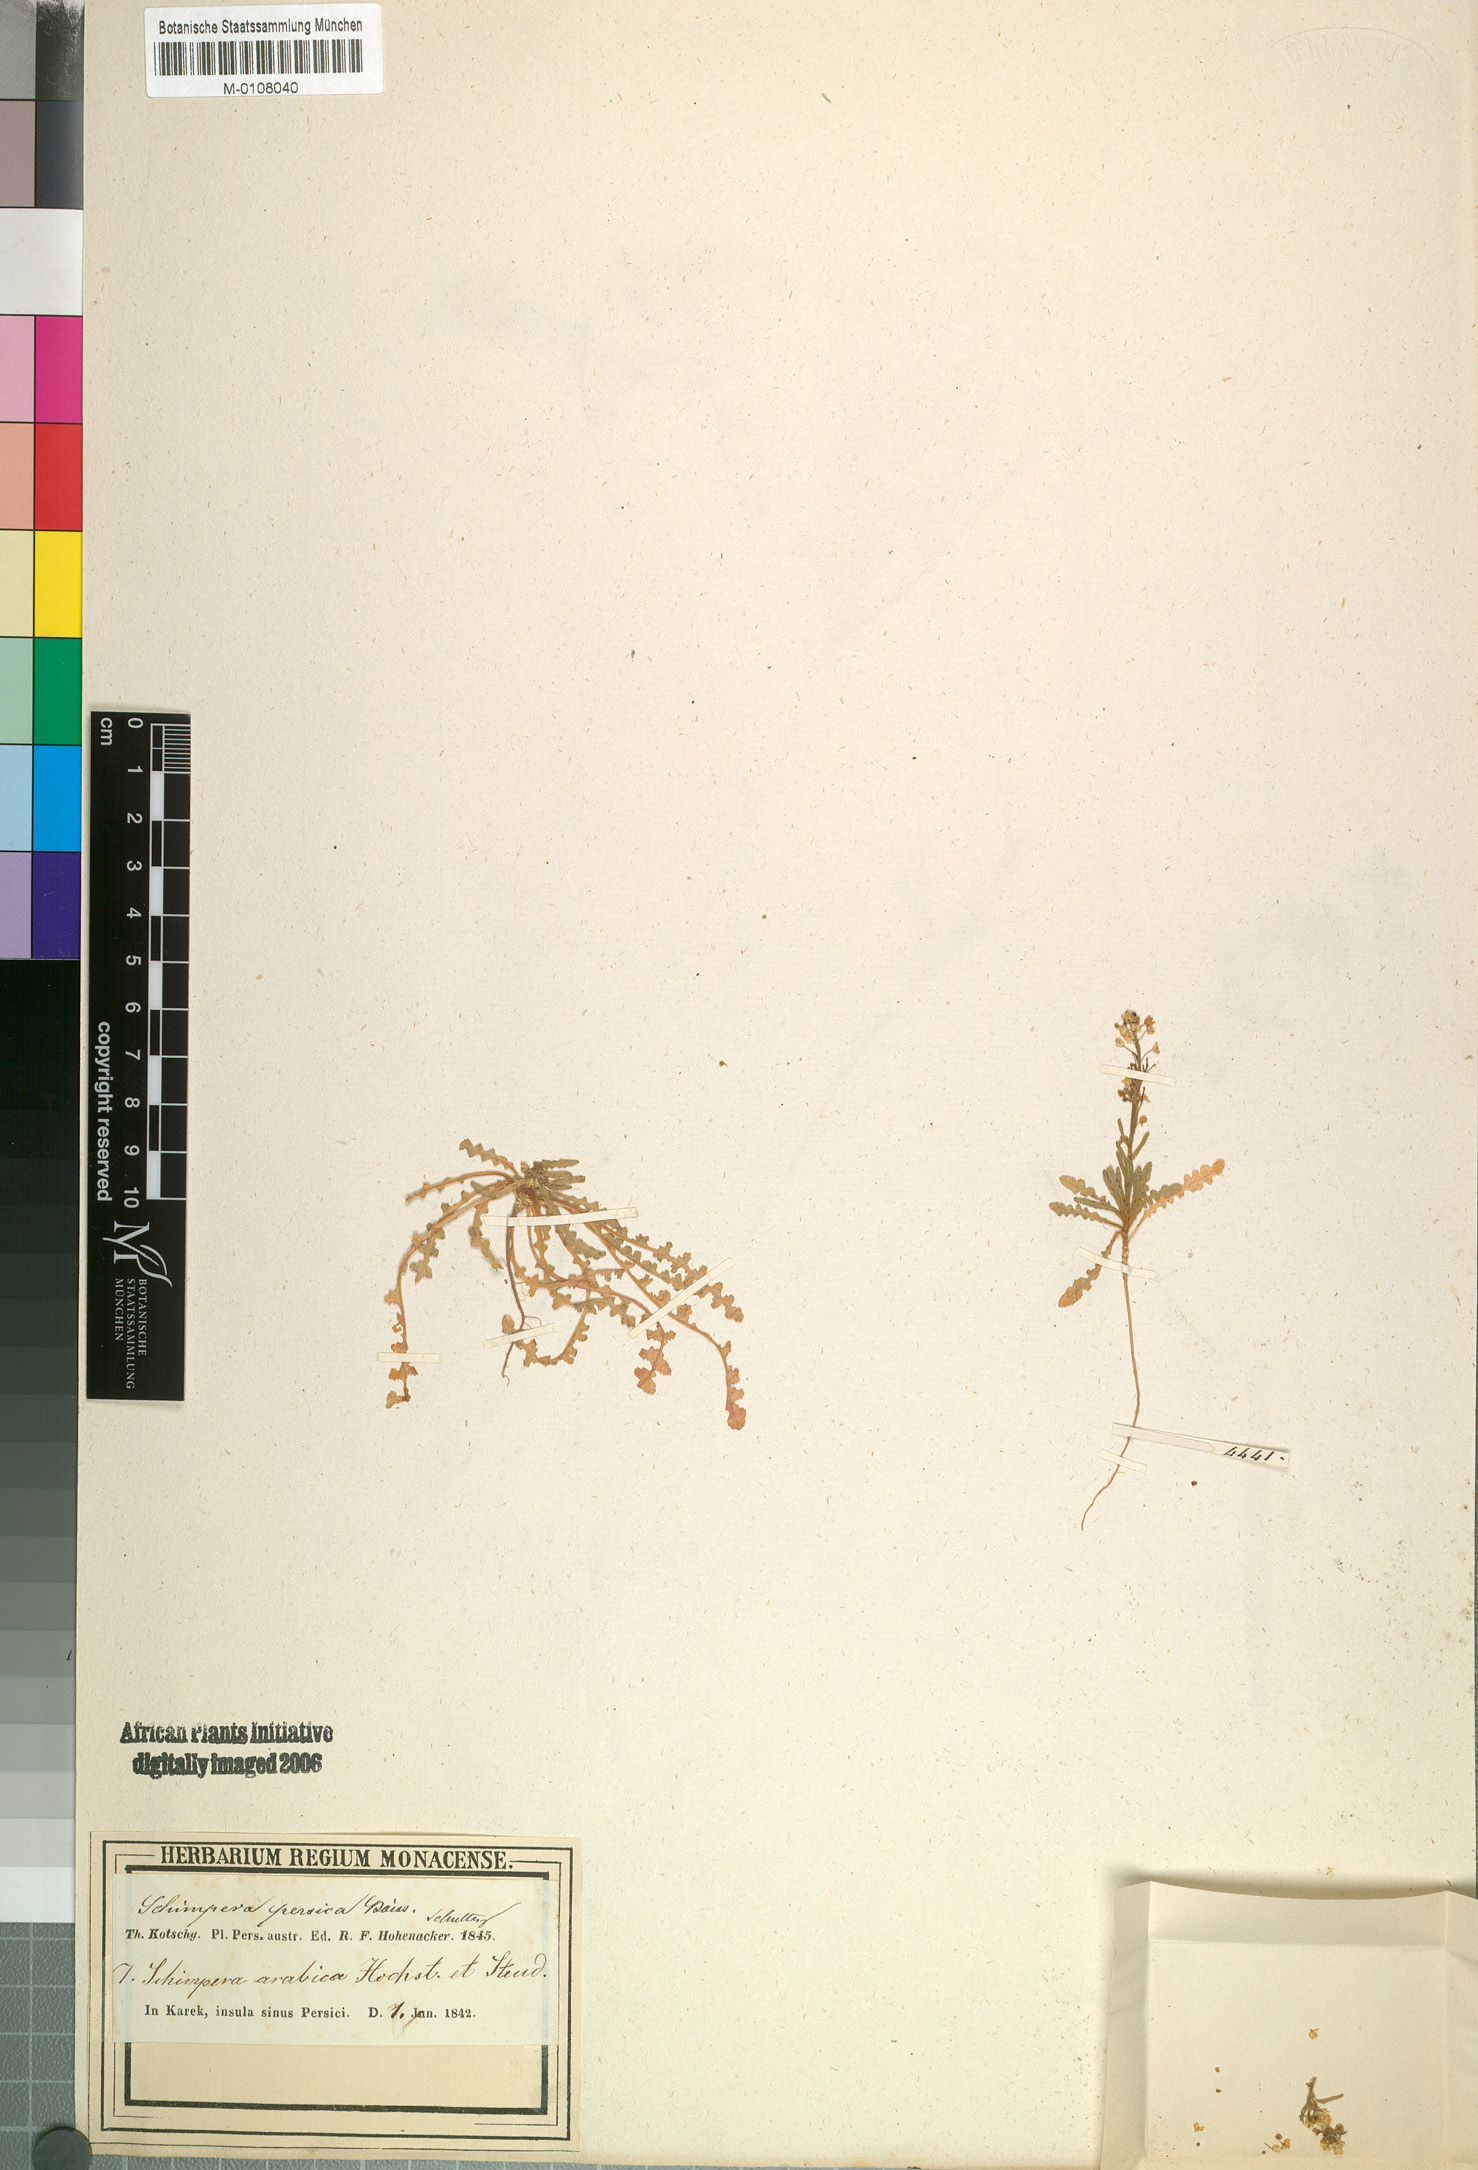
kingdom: Plantae
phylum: Tracheophyta
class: Magnoliopsida
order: Brassicales
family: Brassicaceae
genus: Schimpera
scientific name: Schimpera arabica
